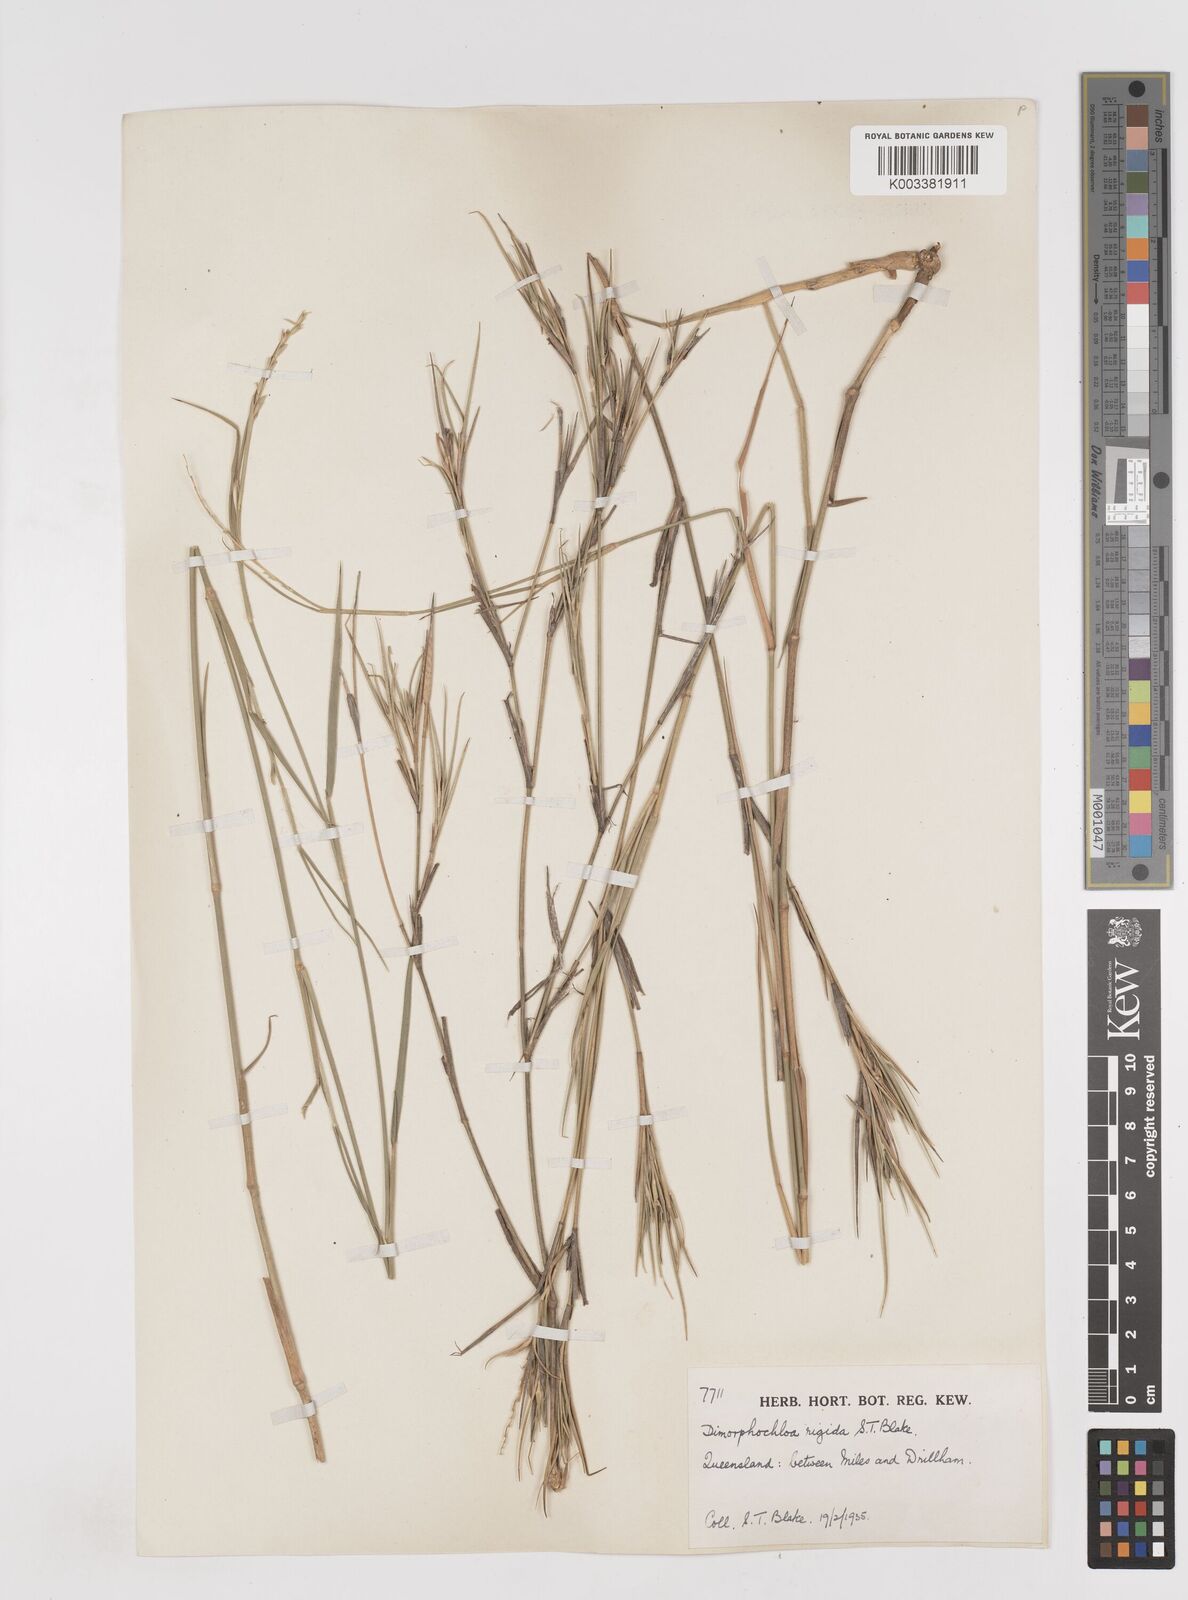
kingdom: Plantae
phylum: Tracheophyta
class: Liliopsida
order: Poales
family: Poaceae
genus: Dimorphochloa
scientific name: Dimorphochloa rigida
